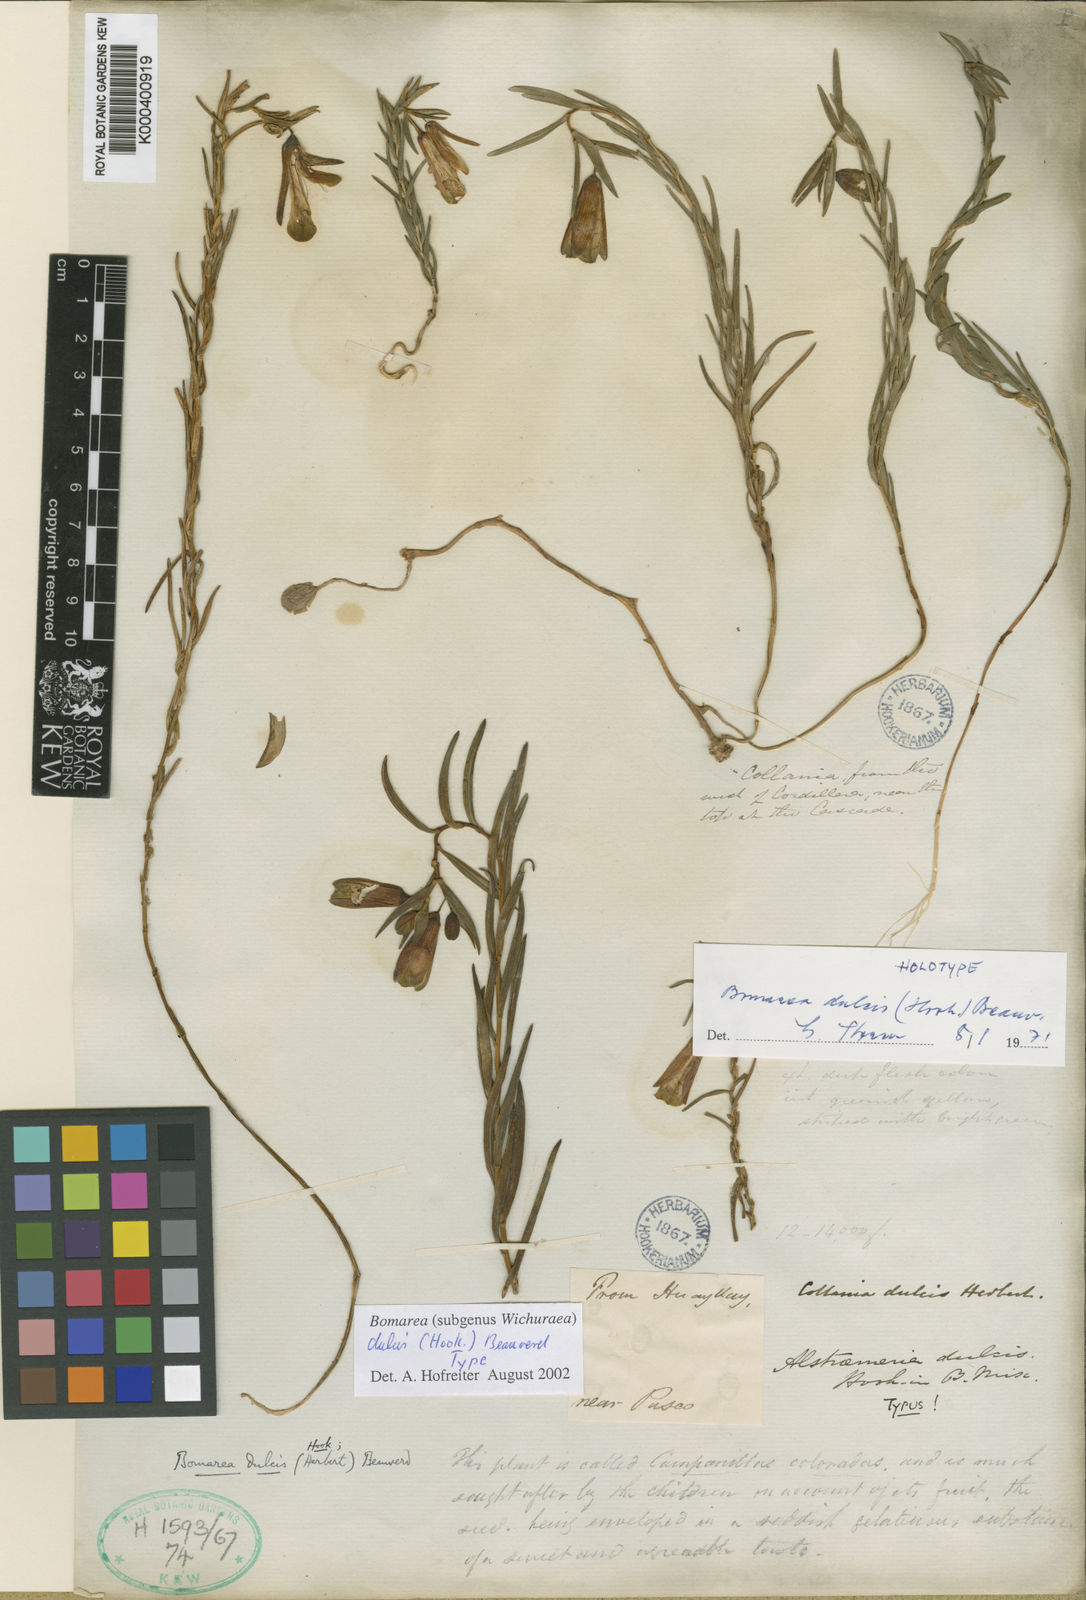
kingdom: Plantae
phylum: Tracheophyta
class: Liliopsida
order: Liliales
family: Alstroemeriaceae
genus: Bomarea
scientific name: Bomarea dulcis
